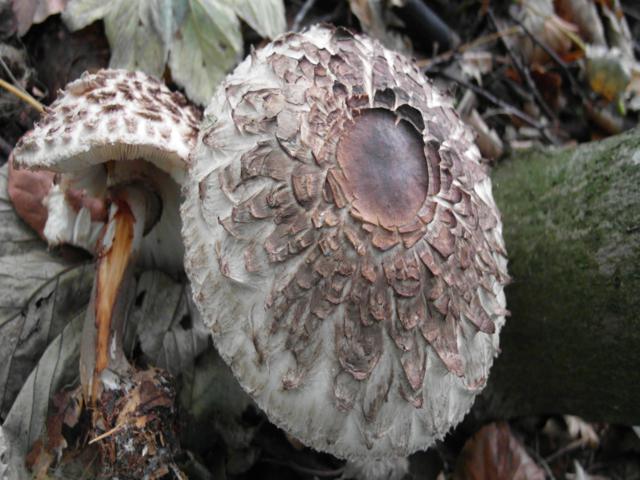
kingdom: Fungi
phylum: Basidiomycota
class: Agaricomycetes
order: Agaricales
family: Agaricaceae
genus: Chlorophyllum
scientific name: Chlorophyllum rhacodes
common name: ægte rabarberhat
